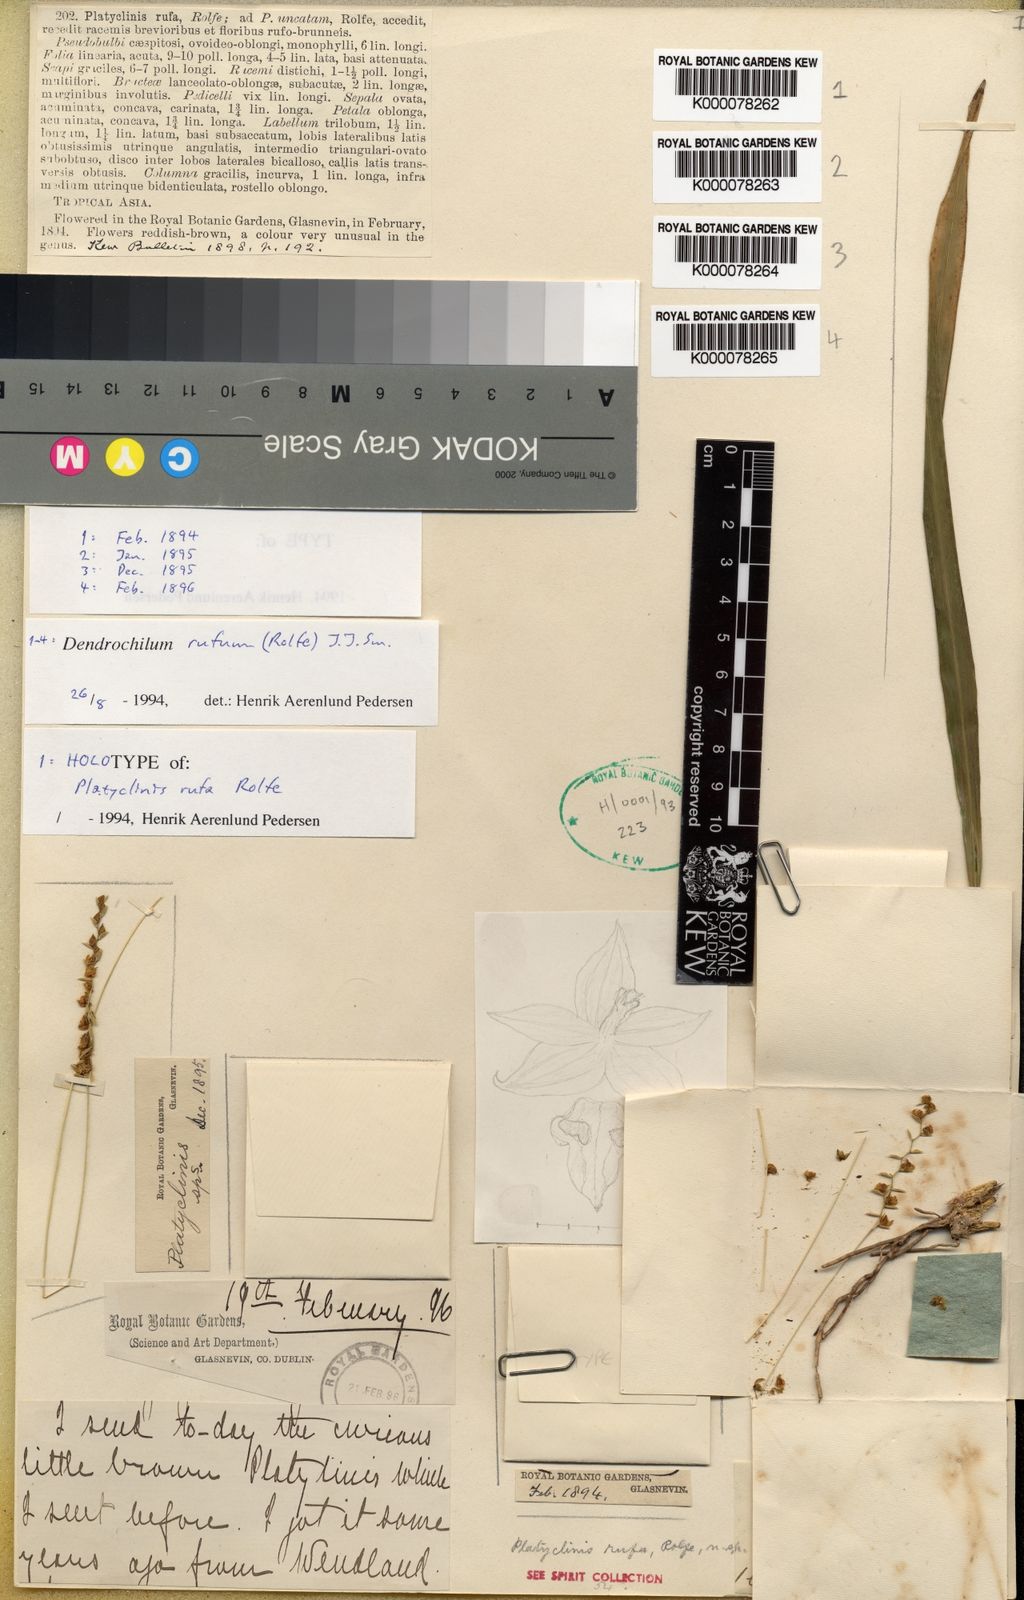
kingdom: Plantae
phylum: Tracheophyta
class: Liliopsida
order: Asparagales
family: Orchidaceae
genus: Coelogyne
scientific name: Coelogyne rufa
